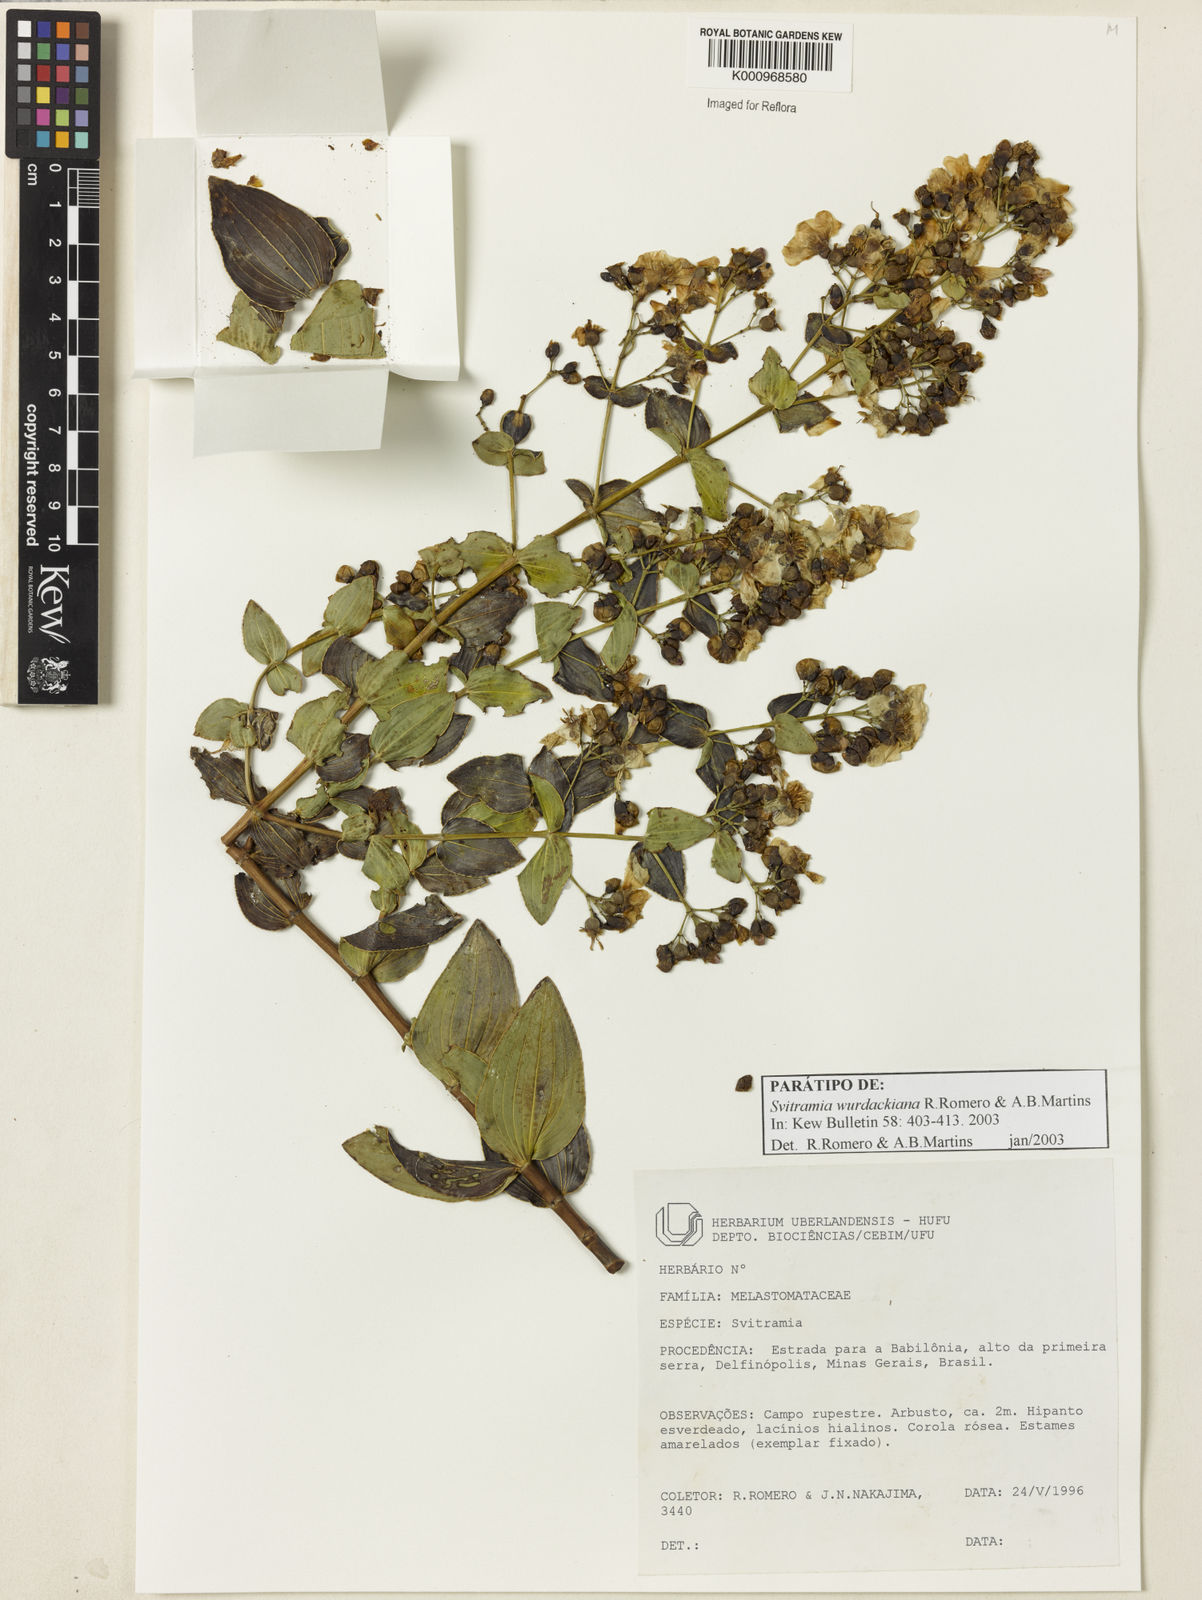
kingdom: Plantae
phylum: Tracheophyta
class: Magnoliopsida
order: Myrtales
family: Melastomataceae
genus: Pleroma
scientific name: Pleroma wurdackianum
